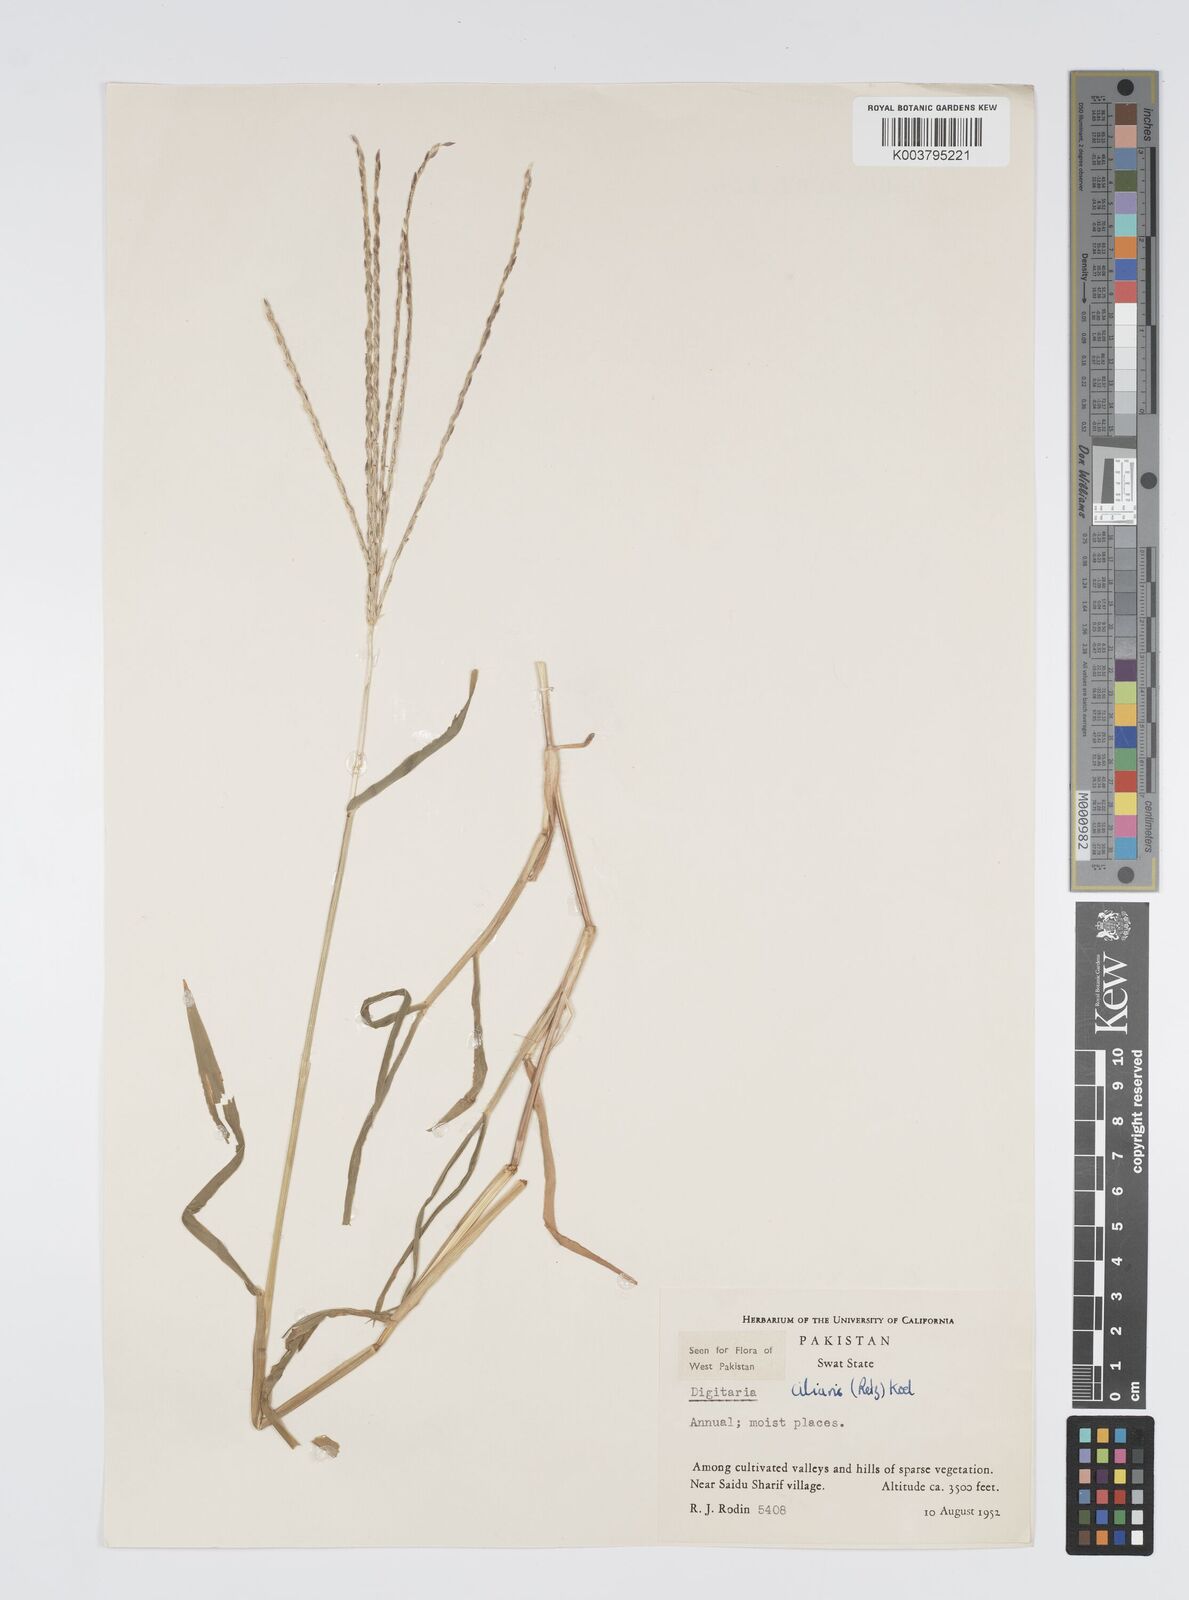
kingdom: Plantae
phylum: Tracheophyta
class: Liliopsida
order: Poales
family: Poaceae
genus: Digitaria
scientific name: Digitaria ciliaris
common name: Tropical finger-grass
